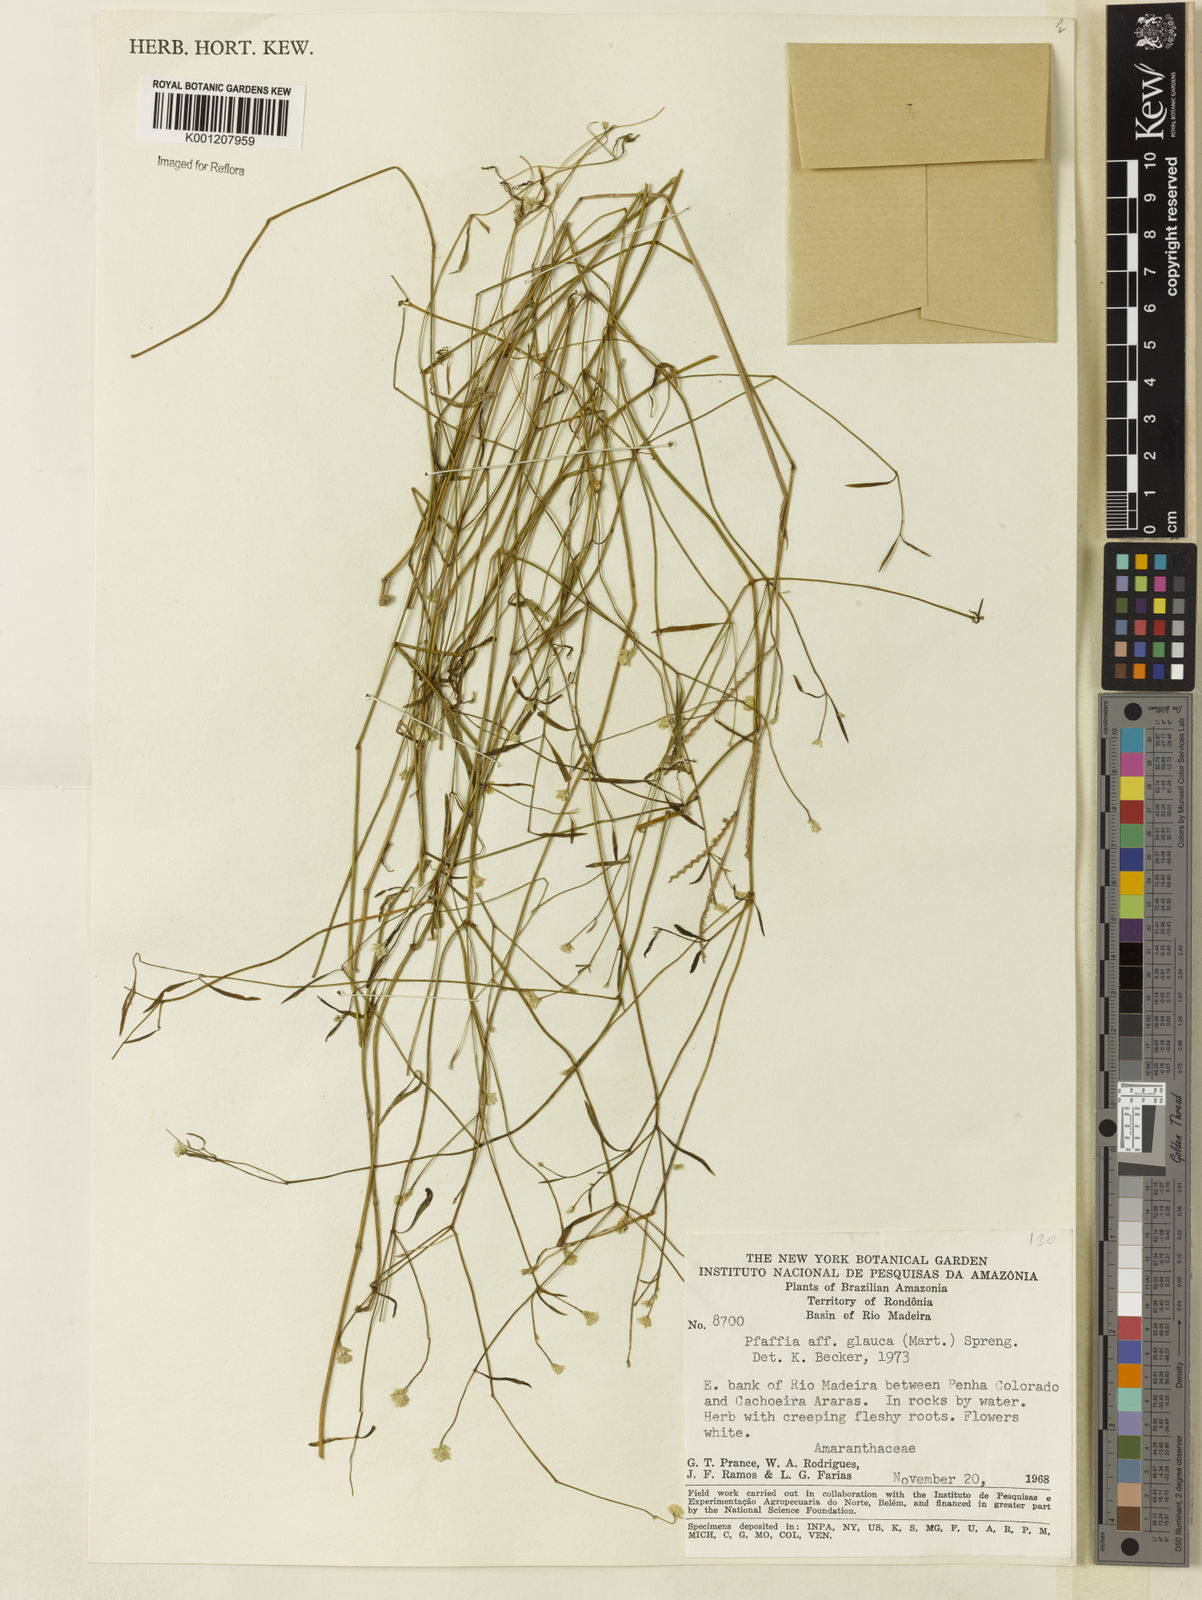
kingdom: Plantae
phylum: Tracheophyta
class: Magnoliopsida
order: Caryophyllales
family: Amaranthaceae
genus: Pfaffia
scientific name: Pfaffia
